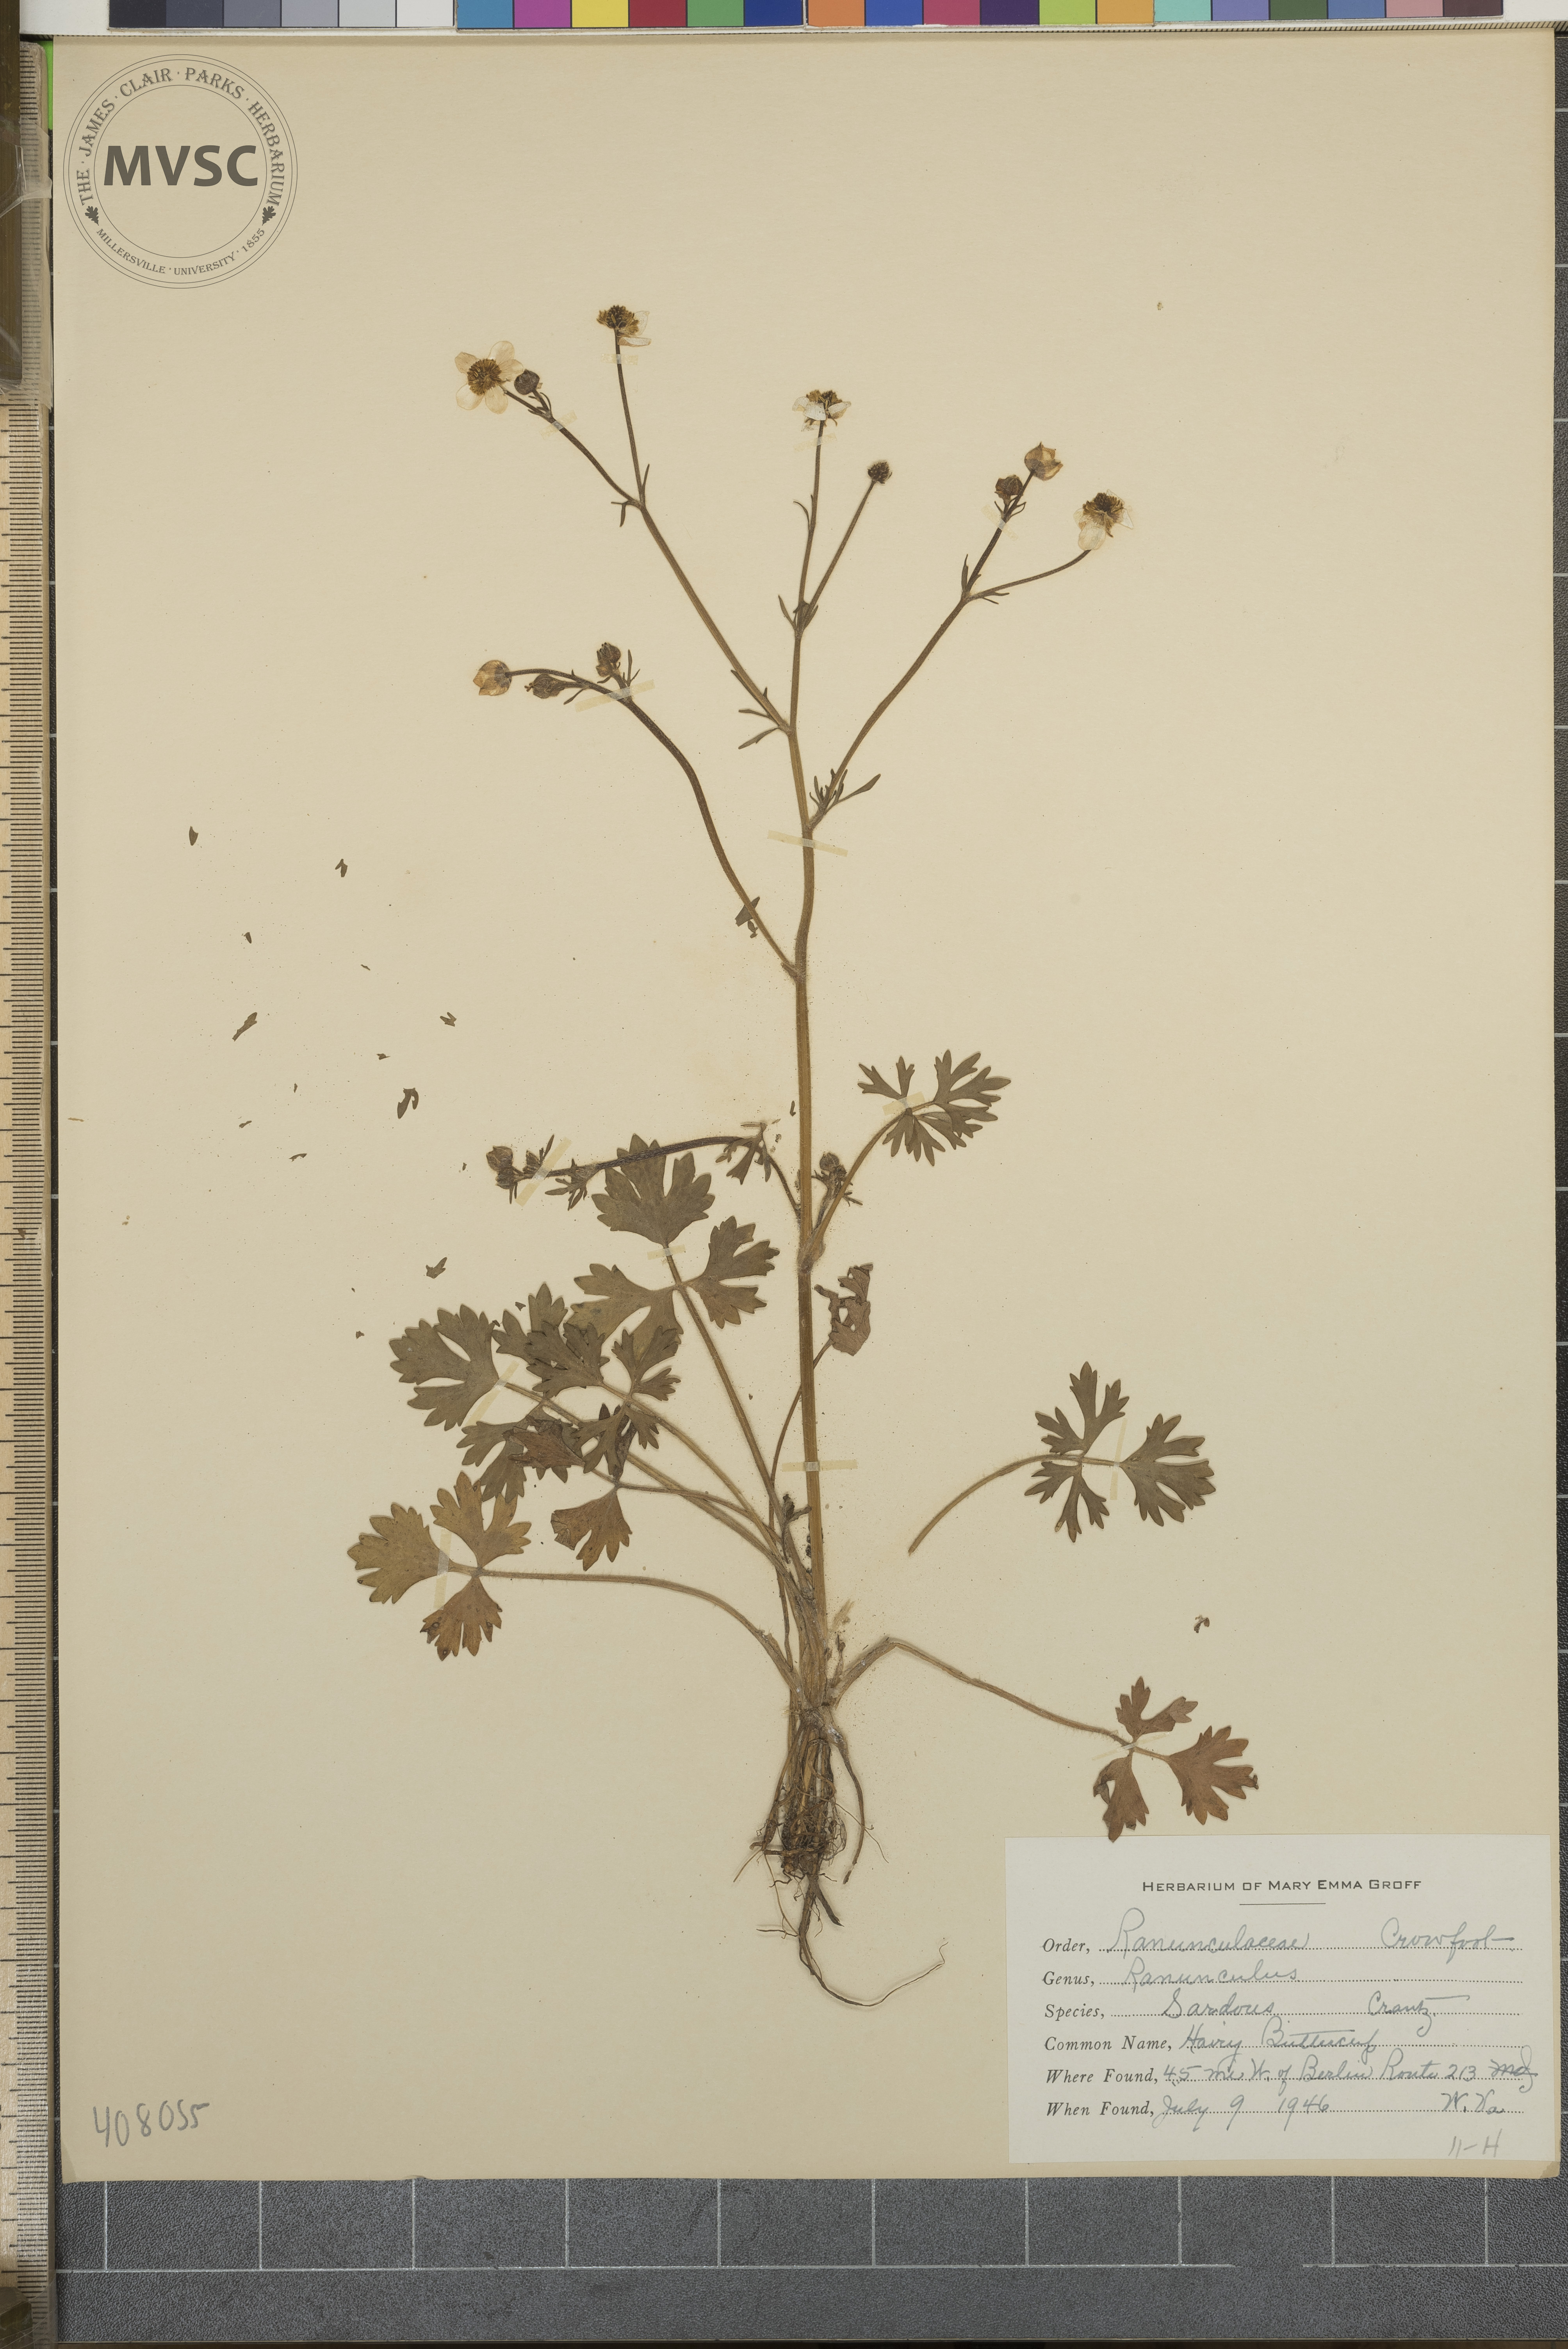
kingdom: Plantae
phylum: Tracheophyta
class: Magnoliopsida
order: Ranunculales
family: Ranunculaceae
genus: Ranunculus
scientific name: Ranunculus sardous
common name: Hairy Buttercup
